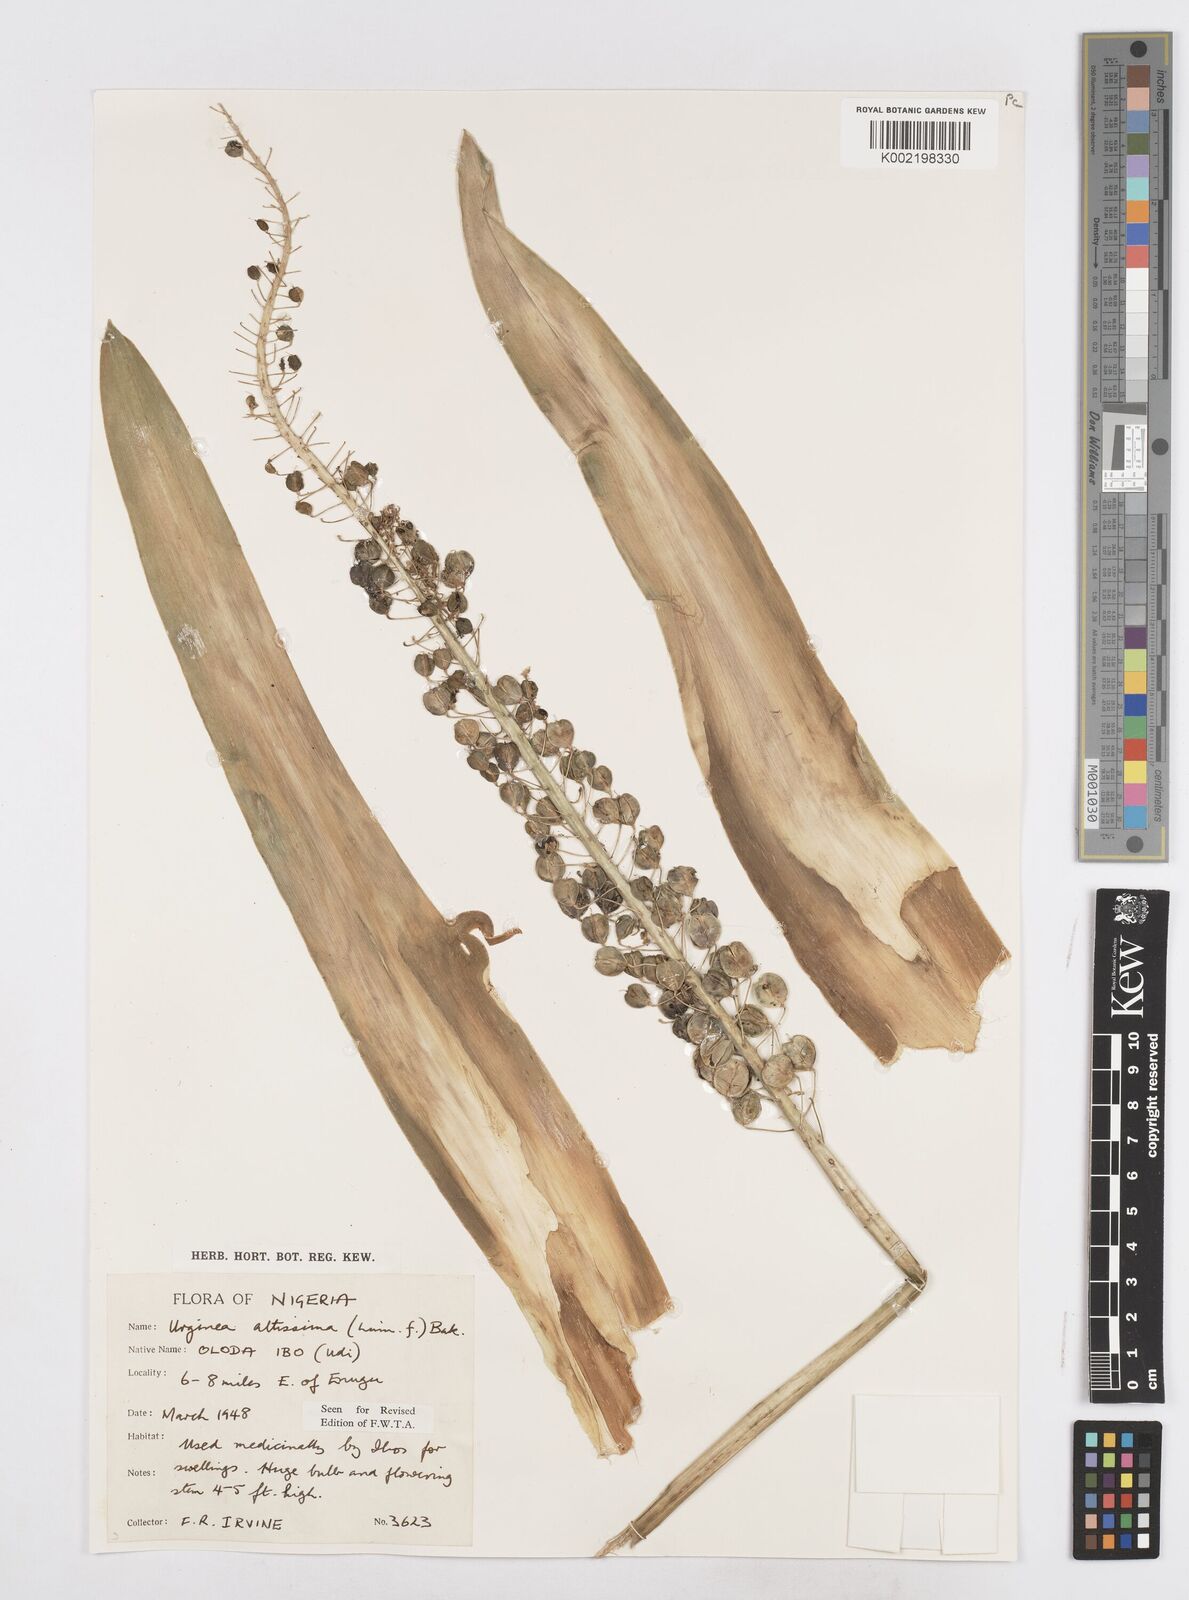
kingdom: Plantae
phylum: Tracheophyta
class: Liliopsida
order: Asparagales
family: Asparagaceae
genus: Drimia
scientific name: Drimia altissima
